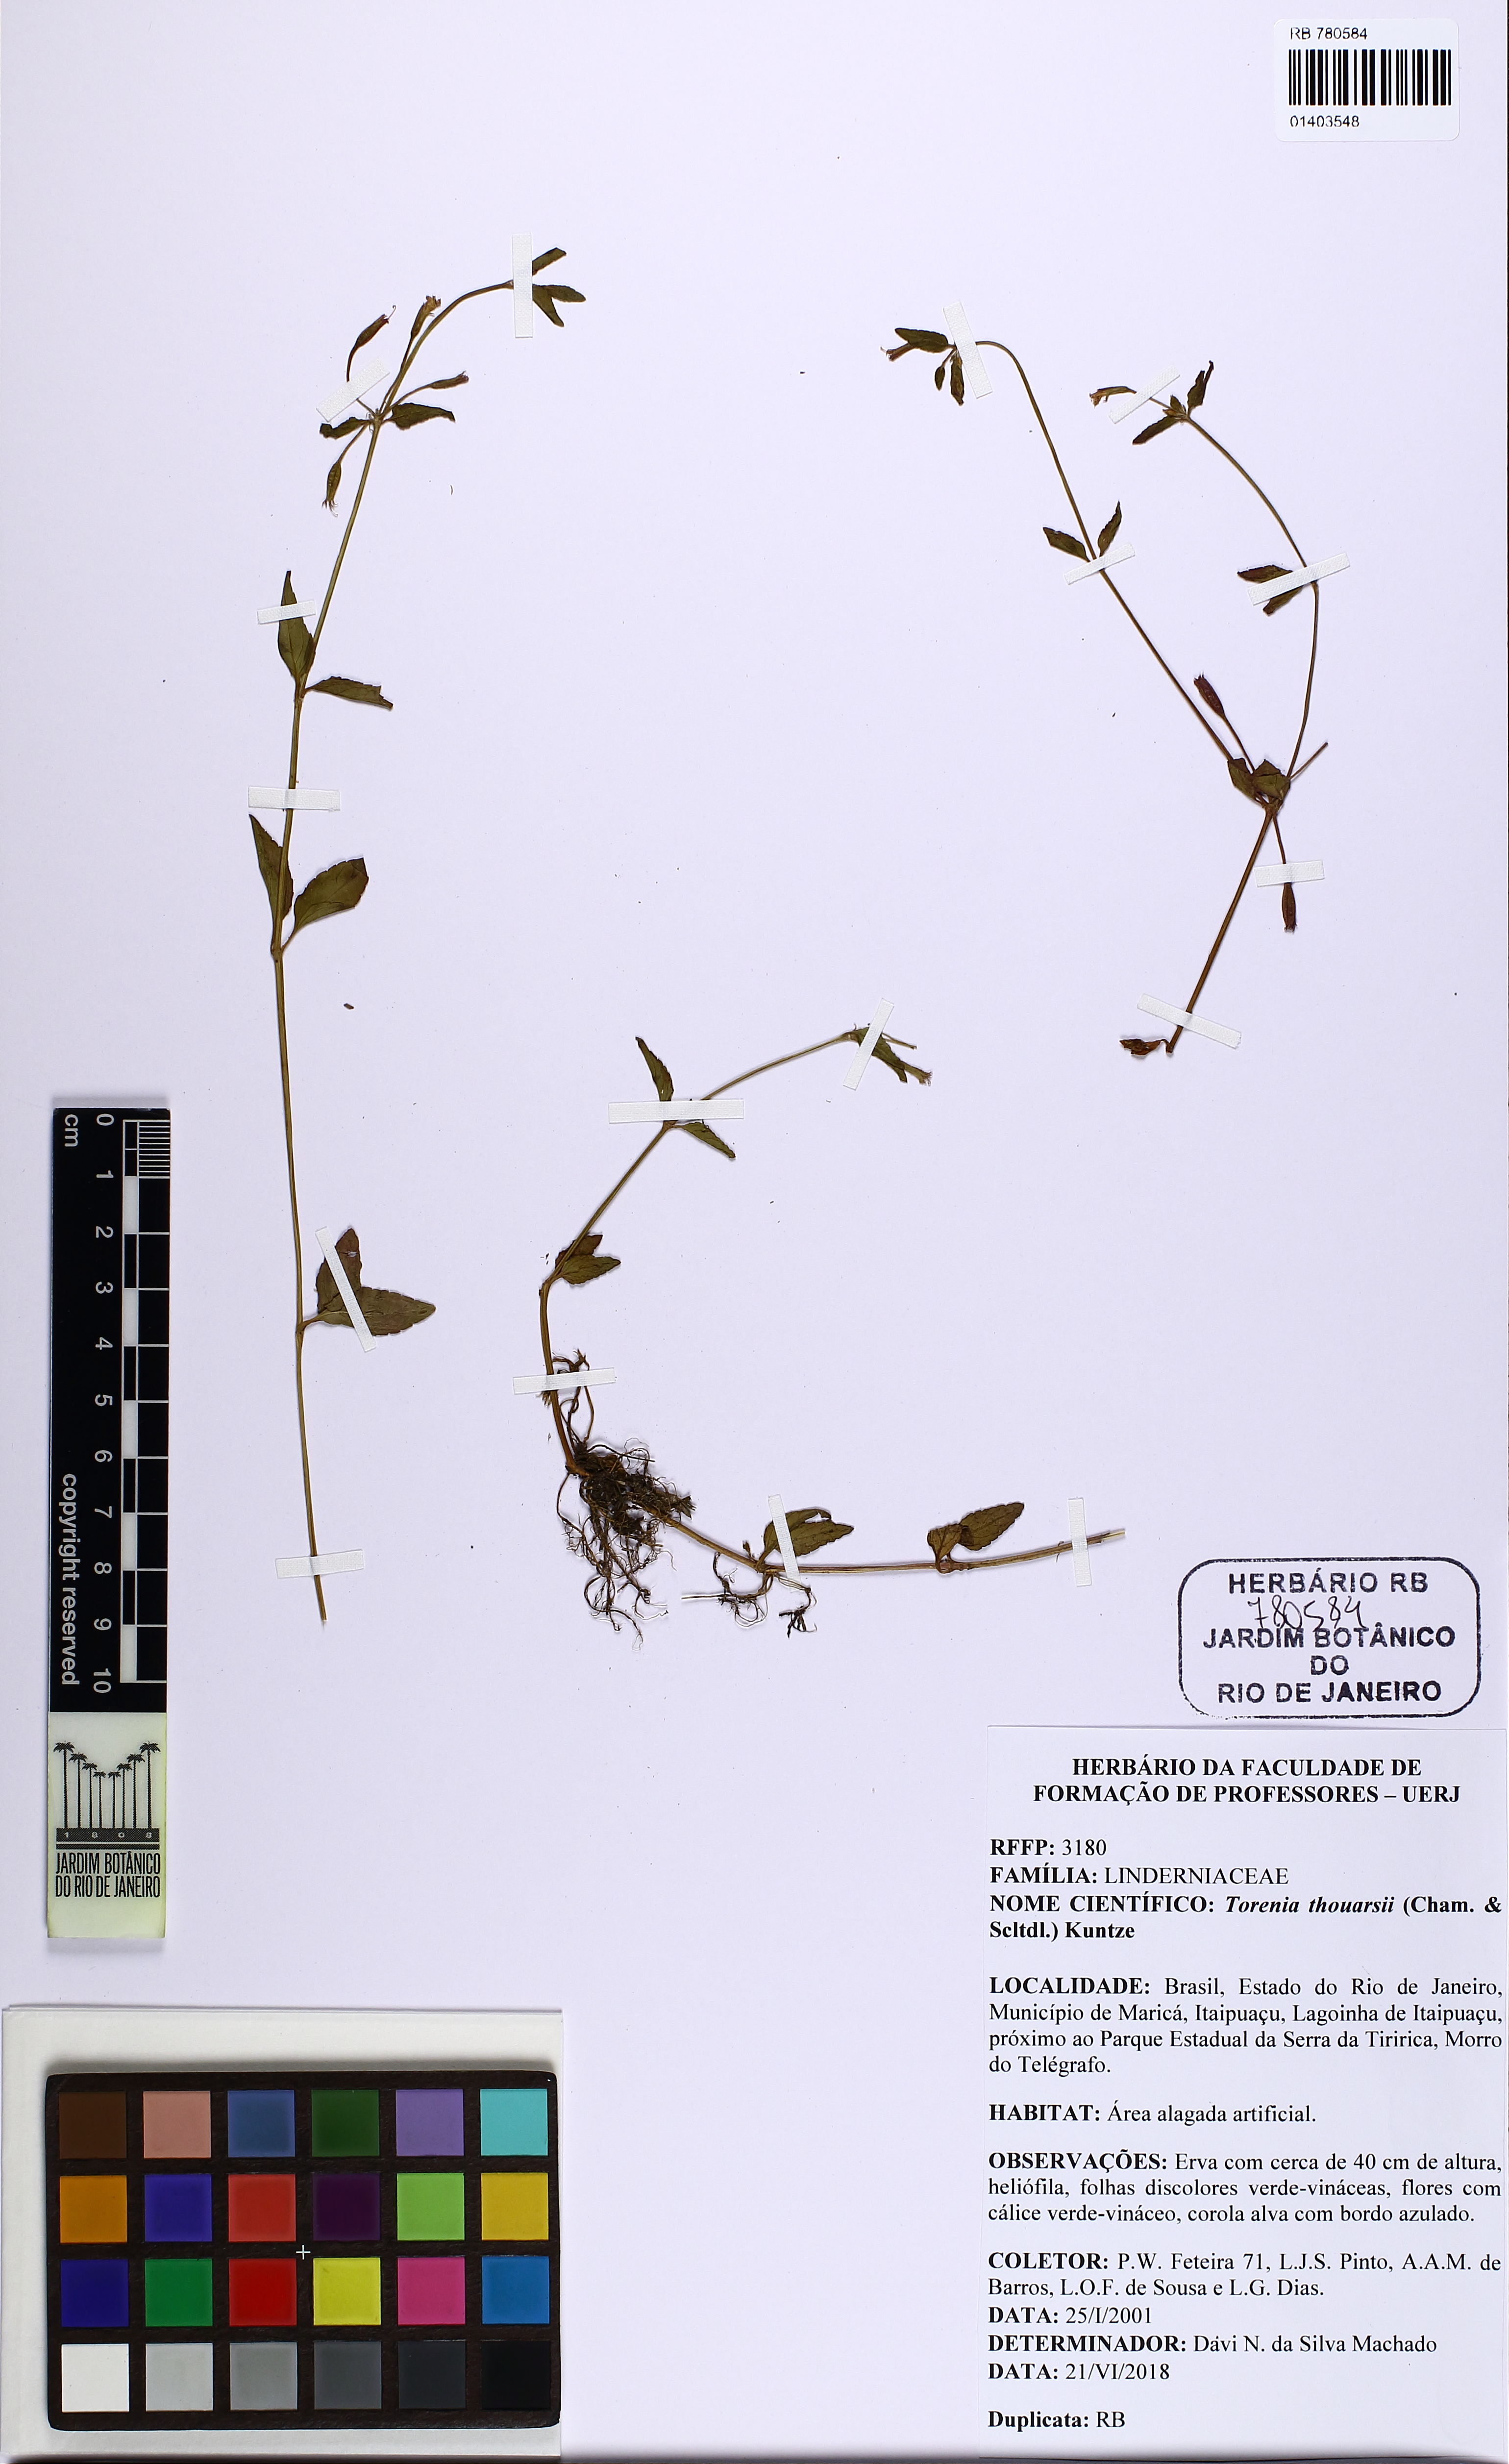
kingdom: Plantae
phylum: Tracheophyta
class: Magnoliopsida
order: Lamiales
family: Linderniaceae
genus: Torenia
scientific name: Torenia thouarsii
